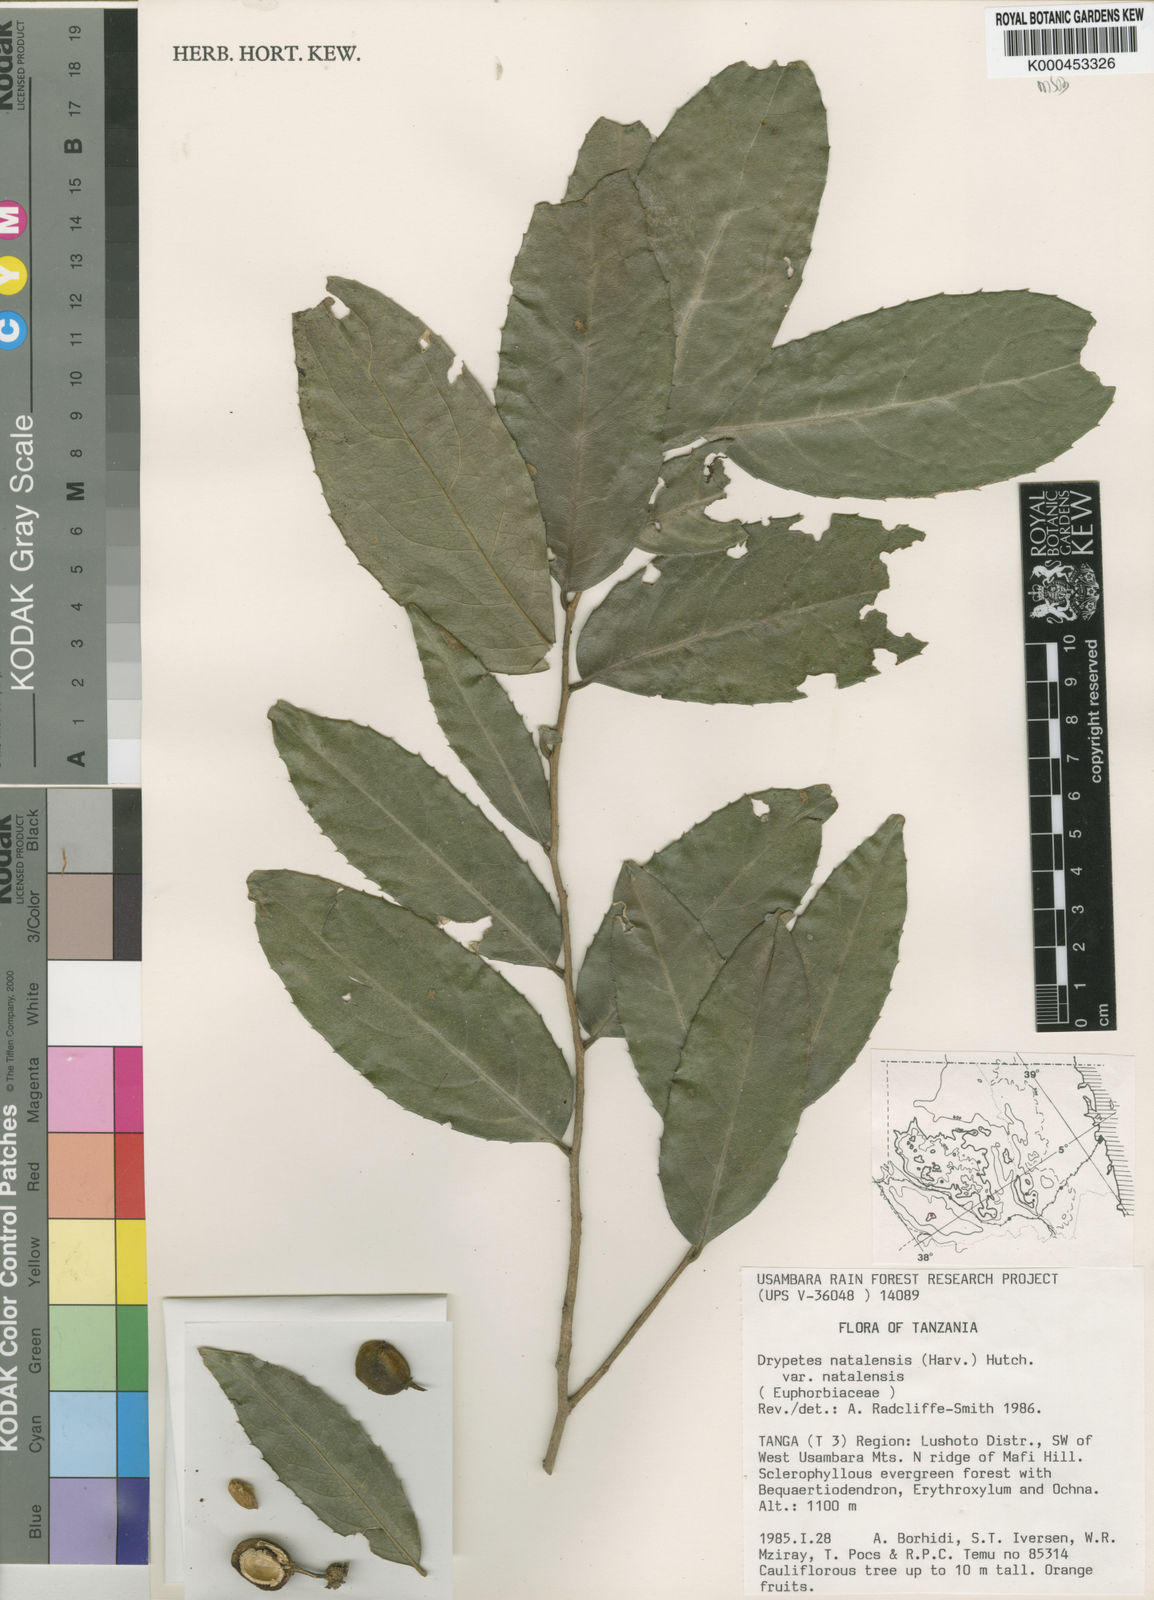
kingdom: Plantae
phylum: Tracheophyta
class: Magnoliopsida
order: Malpighiales
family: Putranjivaceae
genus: Drypetes
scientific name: Drypetes natalensis
